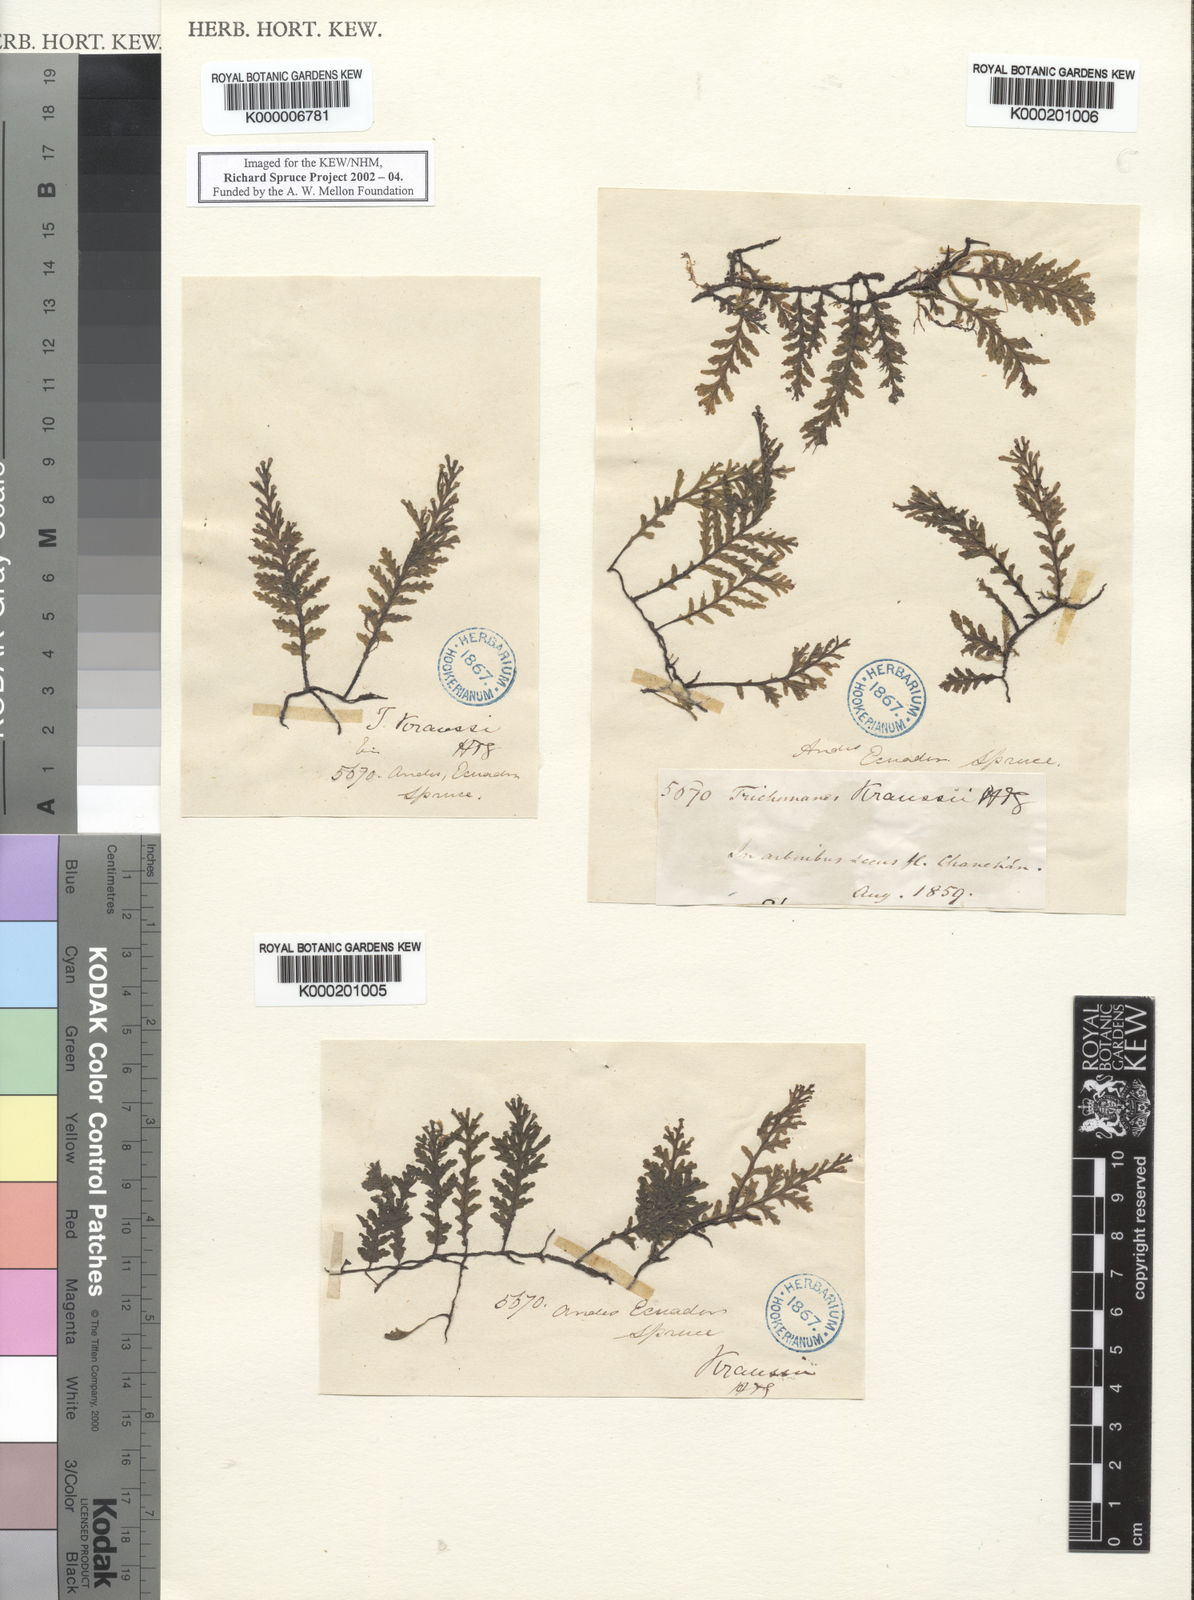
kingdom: Plantae
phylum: Tracheophyta
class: Polypodiopsida
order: Hymenophyllales
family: Hymenophyllaceae
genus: Trichomanes
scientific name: Trichomanes
